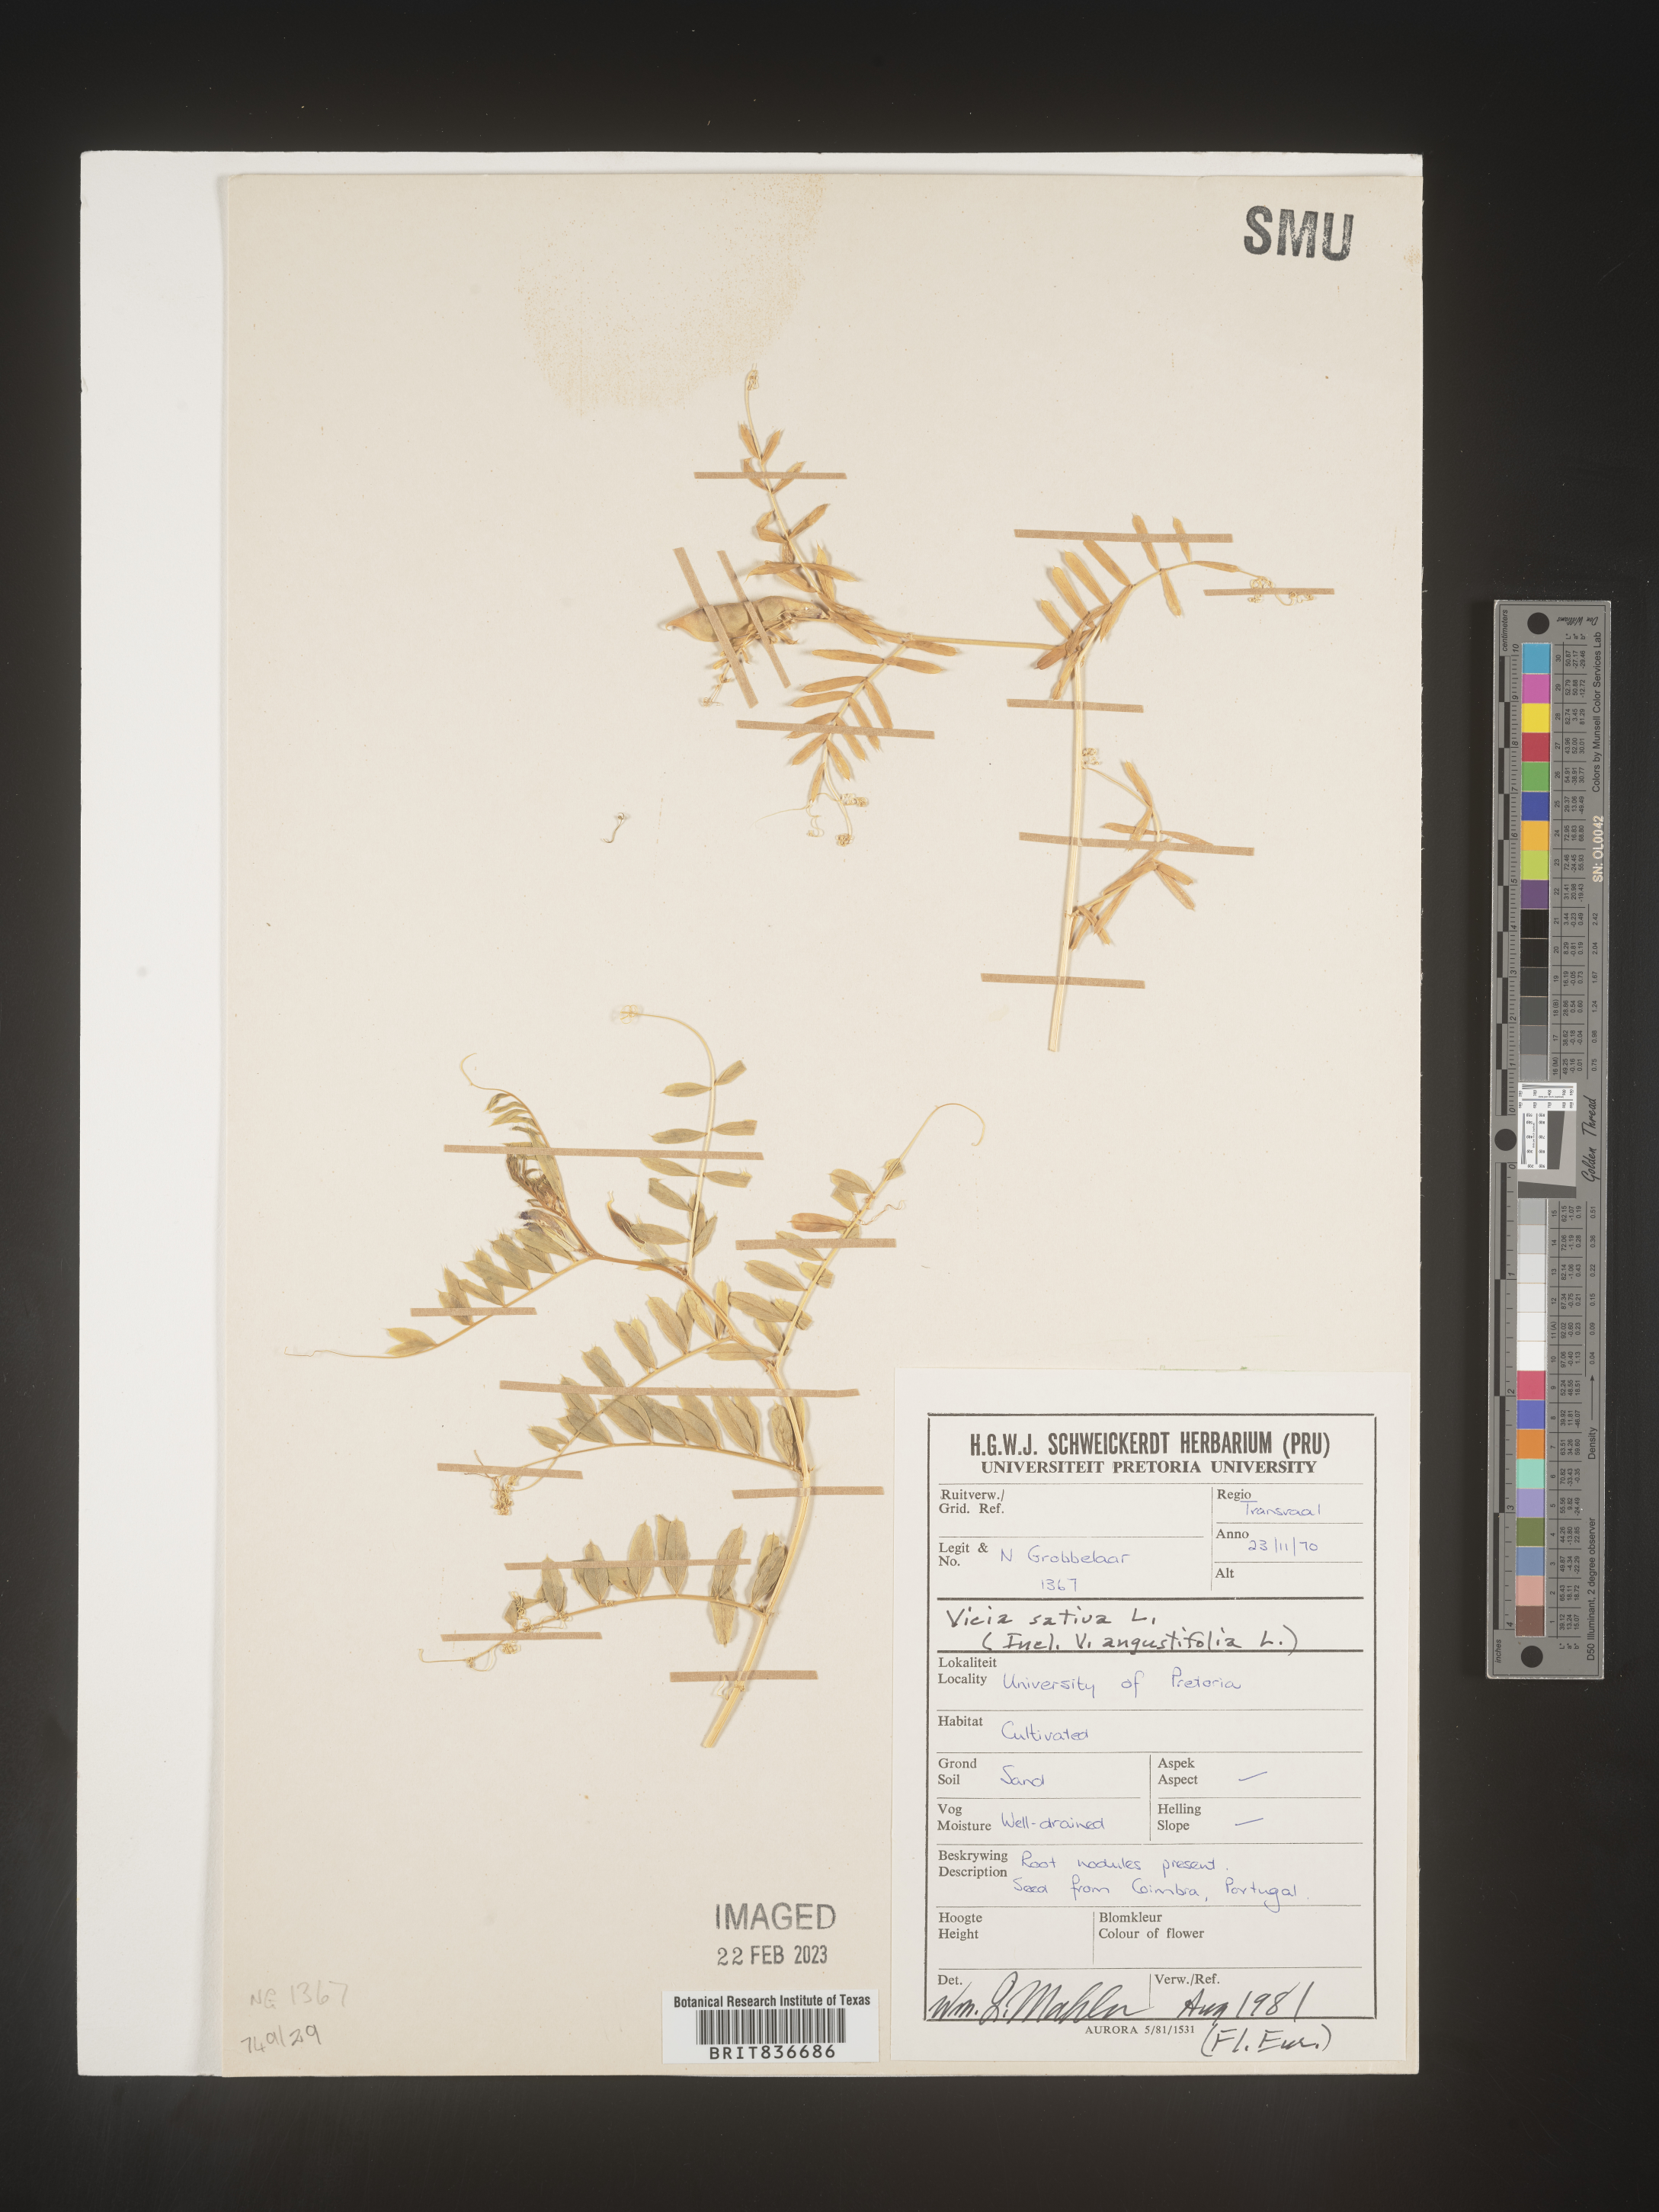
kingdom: Plantae
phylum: Tracheophyta
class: Magnoliopsida
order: Fabales
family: Fabaceae
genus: Vicia
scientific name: Vicia
